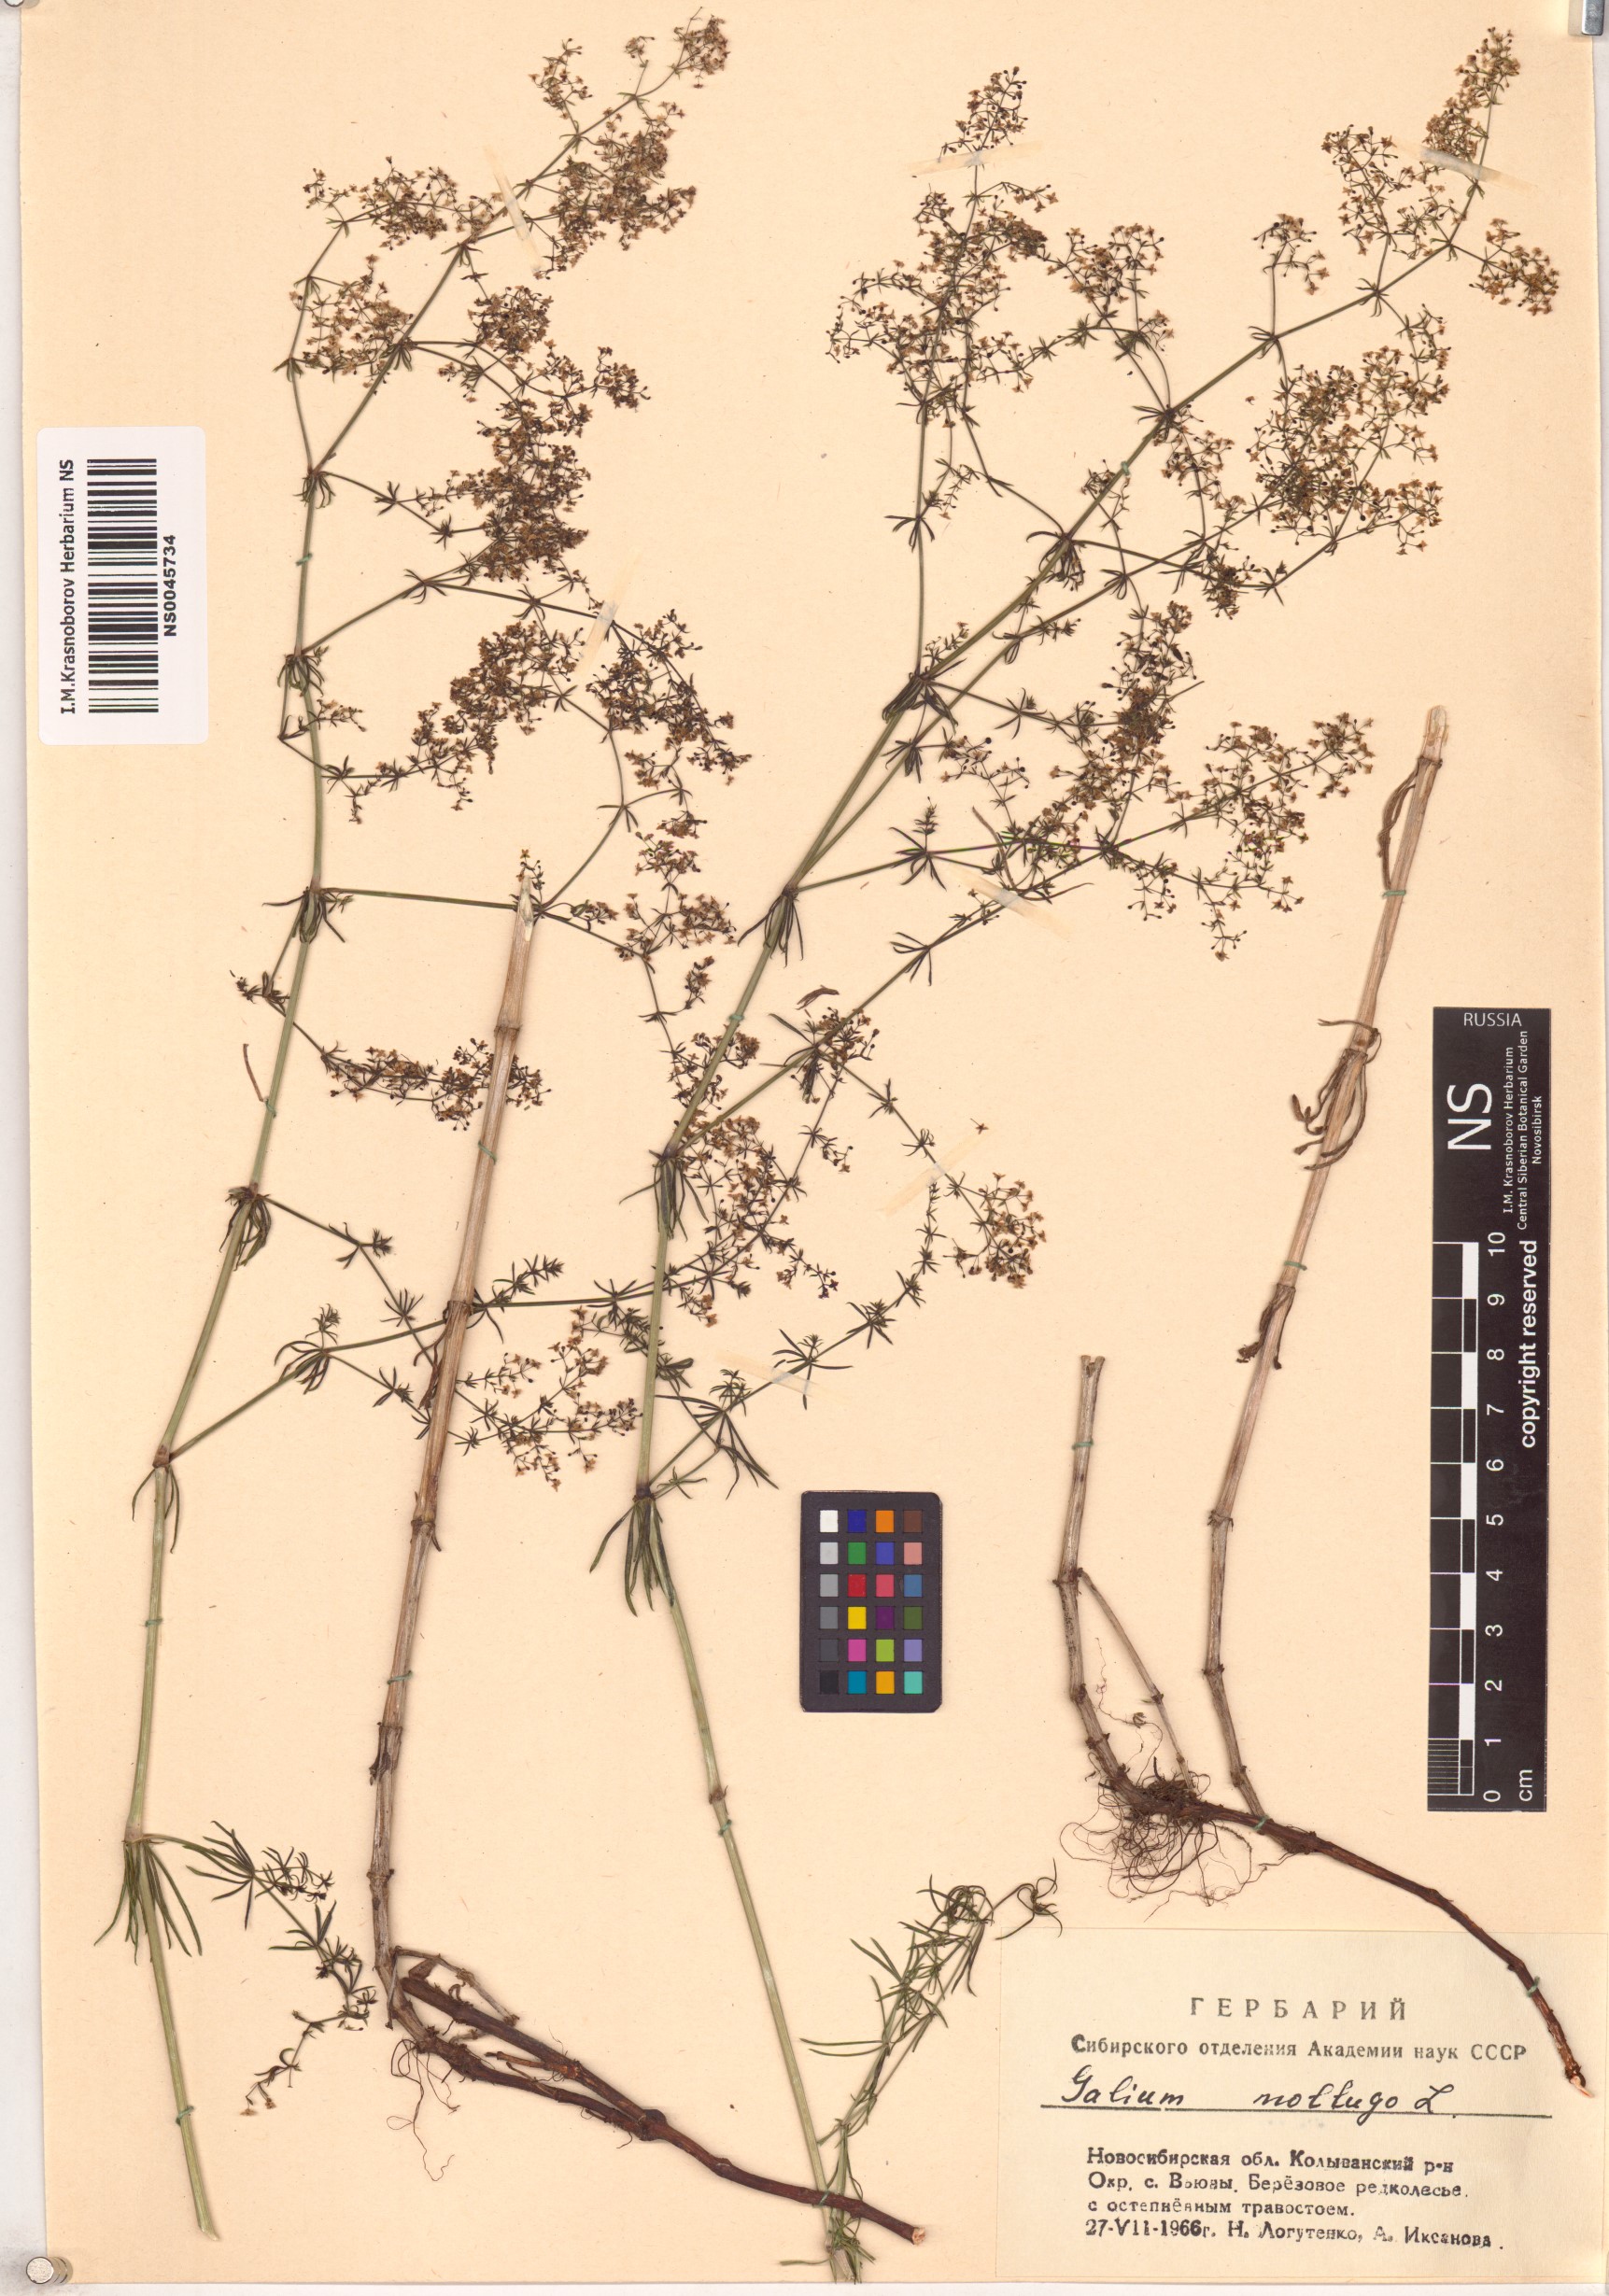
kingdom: Plantae
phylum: Tracheophyta
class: Magnoliopsida
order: Gentianales
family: Rubiaceae
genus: Galium
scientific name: Galium mollugo
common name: Hedge bedstraw
